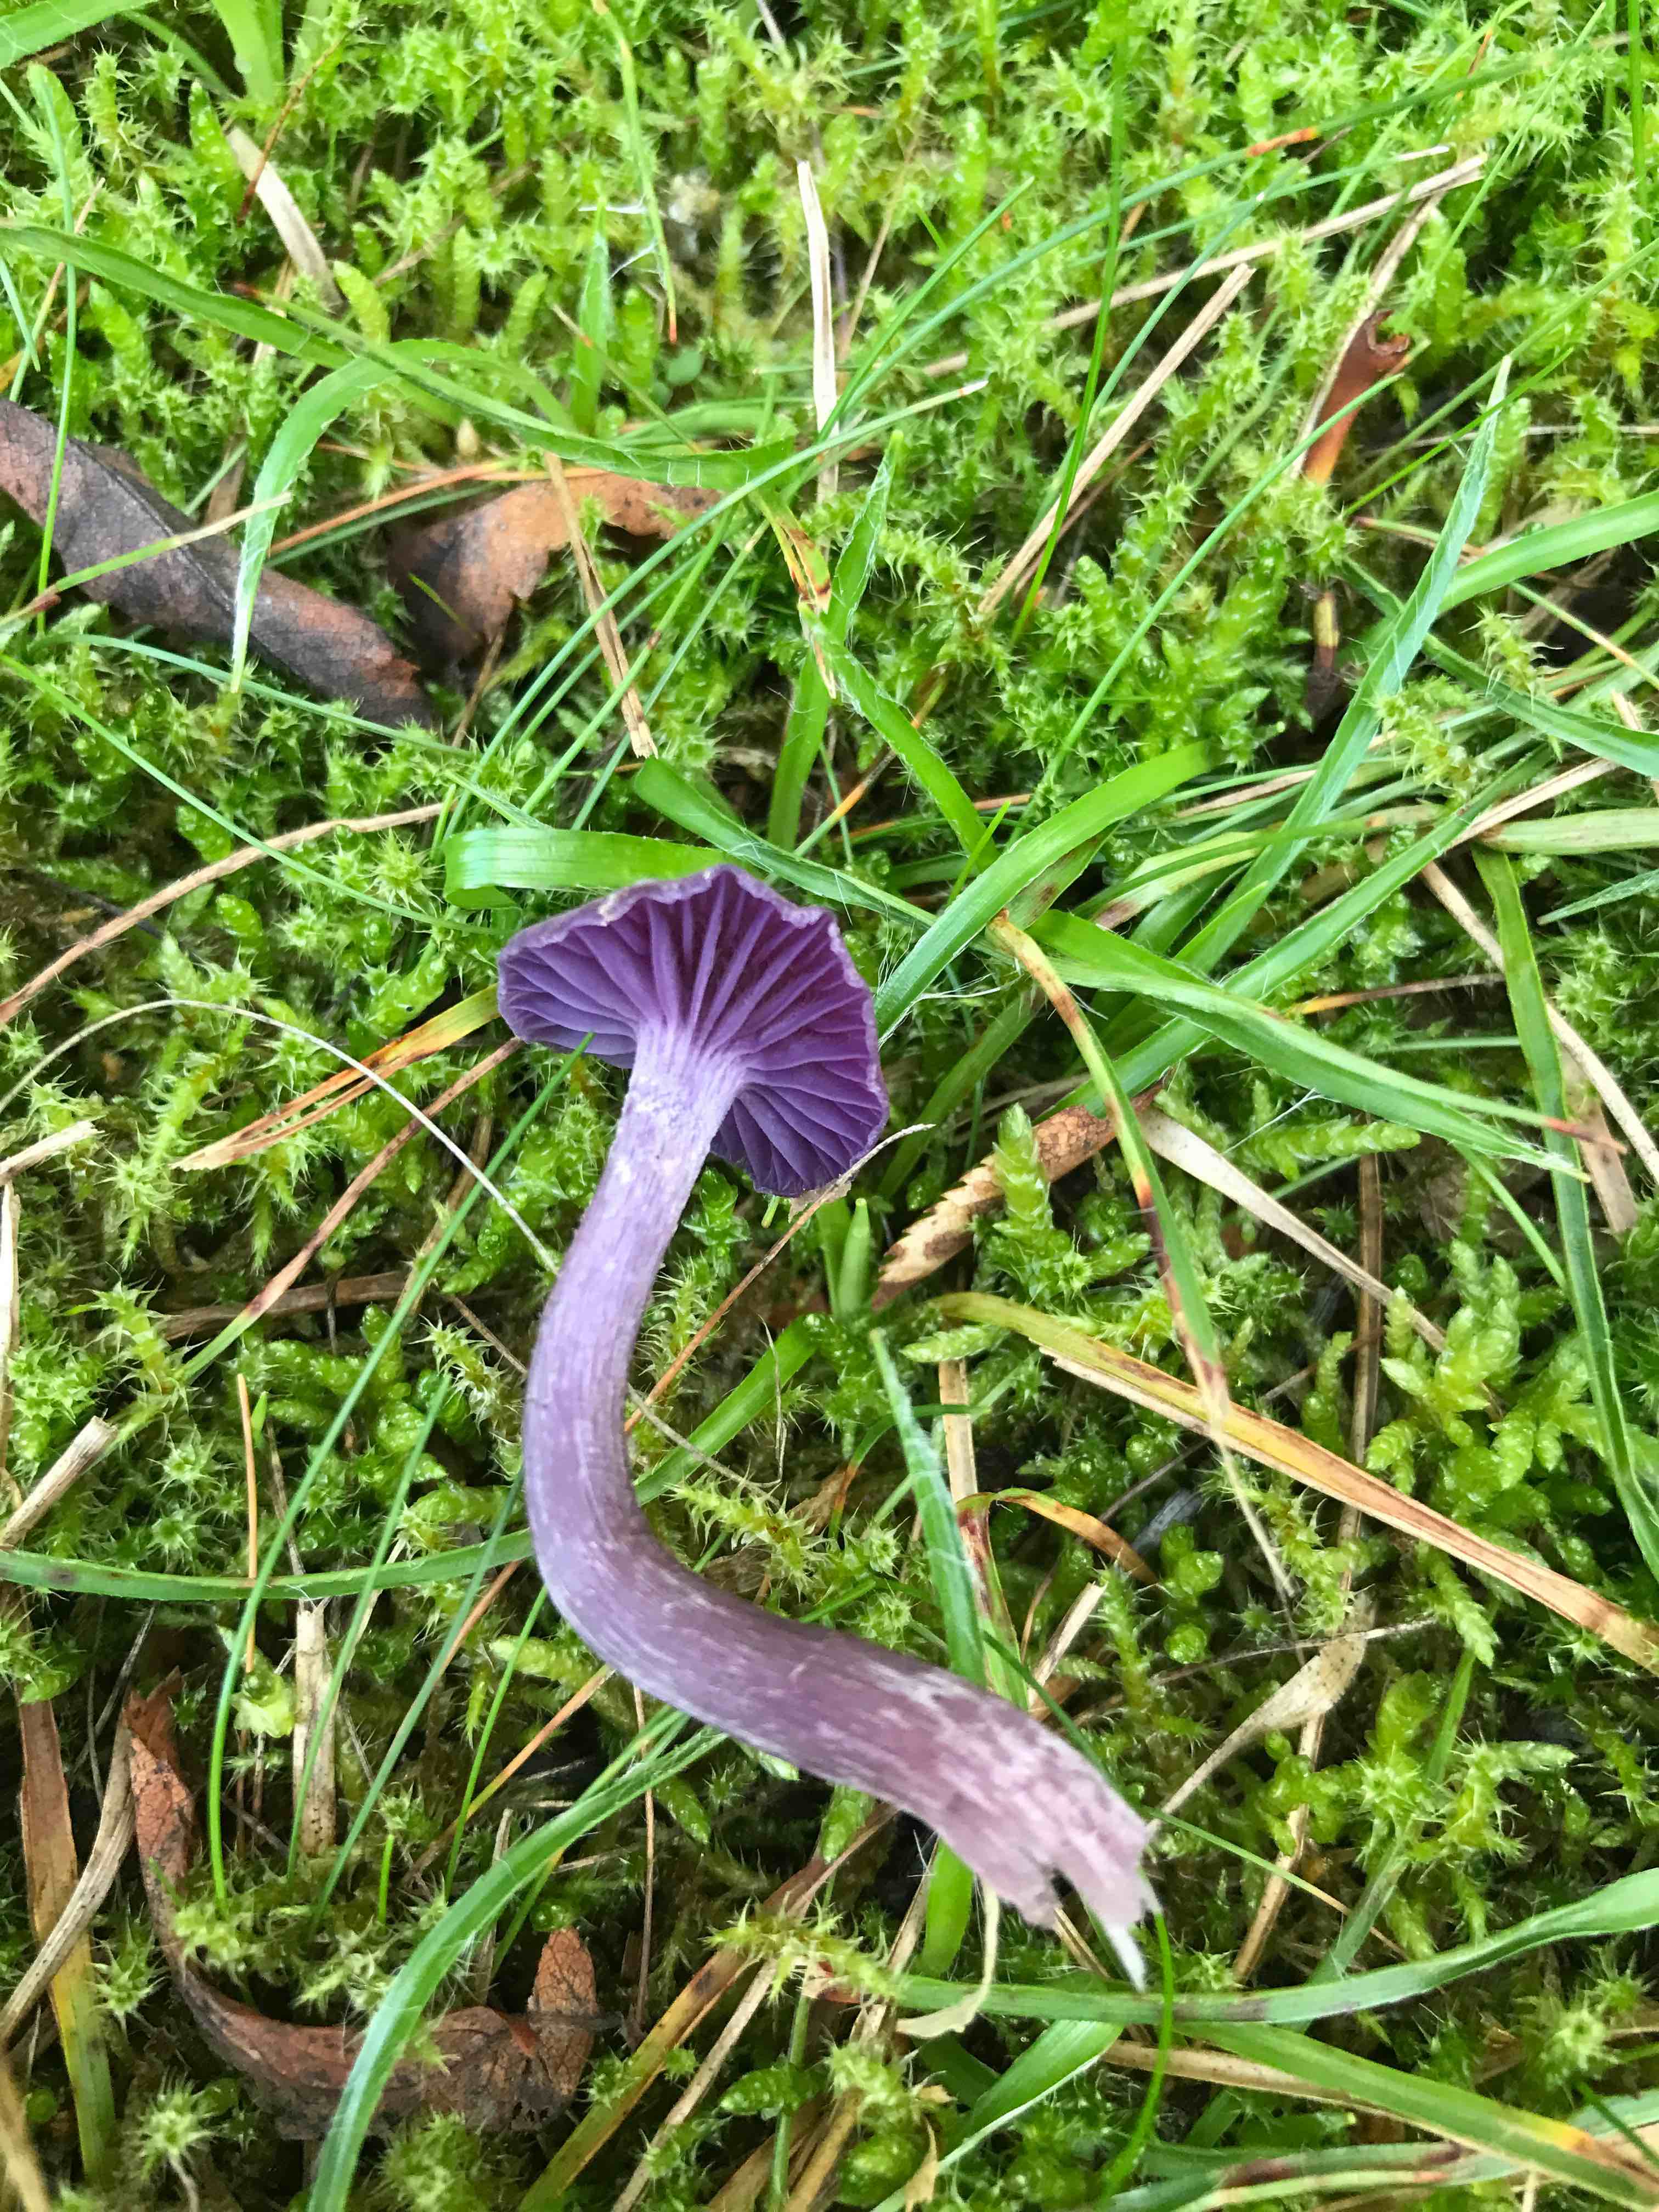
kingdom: Fungi
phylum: Basidiomycota
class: Agaricomycetes
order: Agaricales
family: Hydnangiaceae
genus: Laccaria
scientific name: Laccaria amethystina
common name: violet ametysthat
